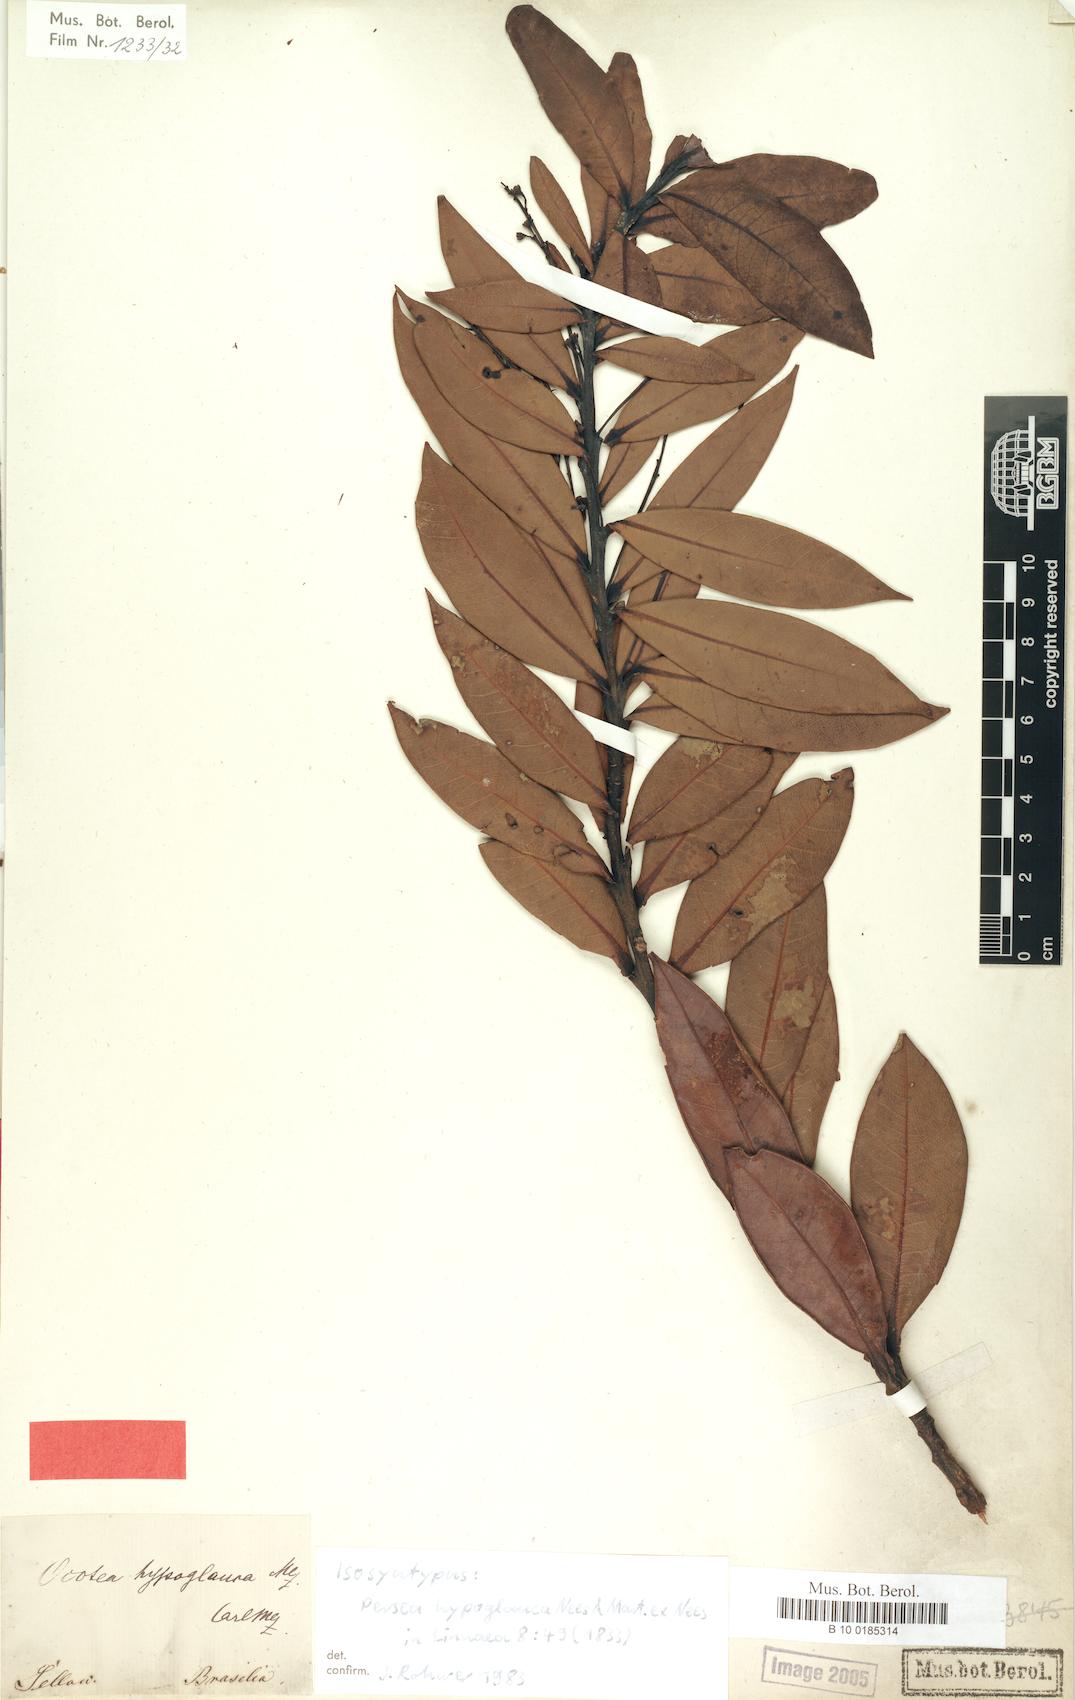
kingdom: Plantae
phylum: Tracheophyta
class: Magnoliopsida
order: Laurales
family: Lauraceae
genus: Ocotea
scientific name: Ocotea hypoglauca
